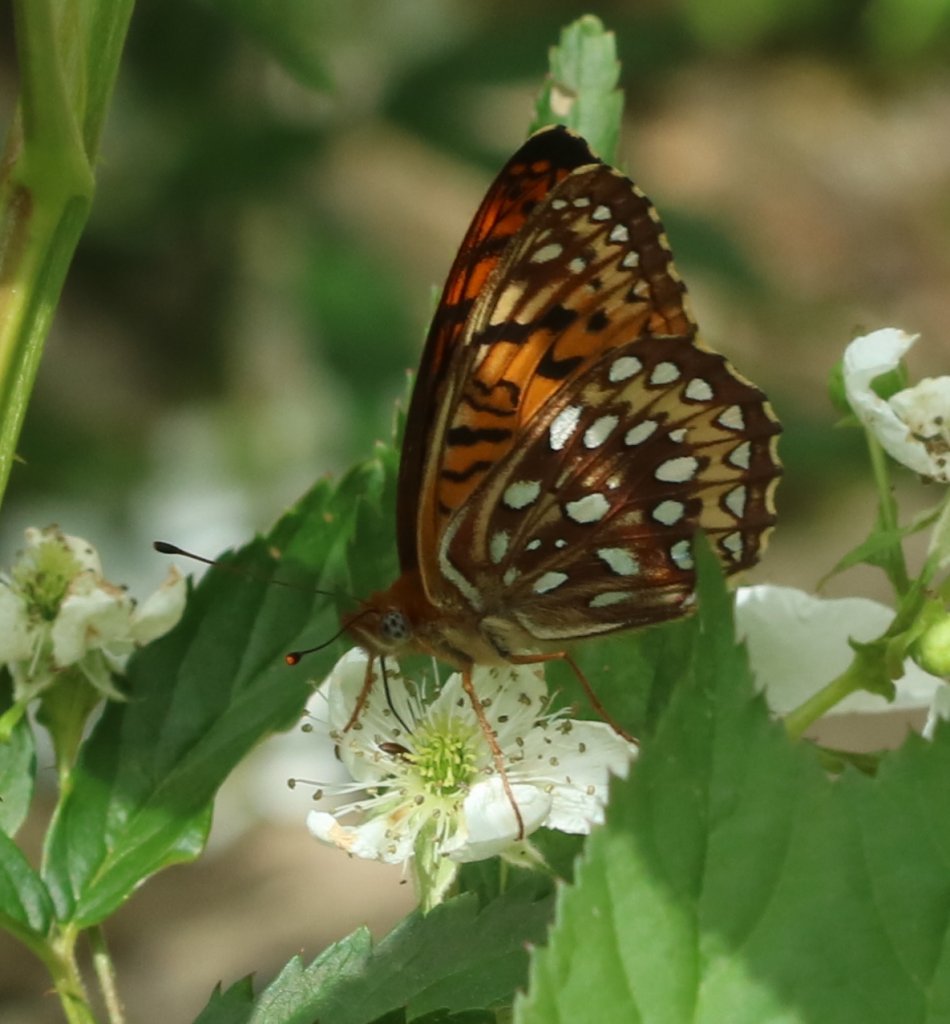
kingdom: Animalia
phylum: Arthropoda
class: Insecta
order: Lepidoptera
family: Nymphalidae
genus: Speyeria
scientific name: Speyeria atlantis
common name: Atlantis Fritillary
